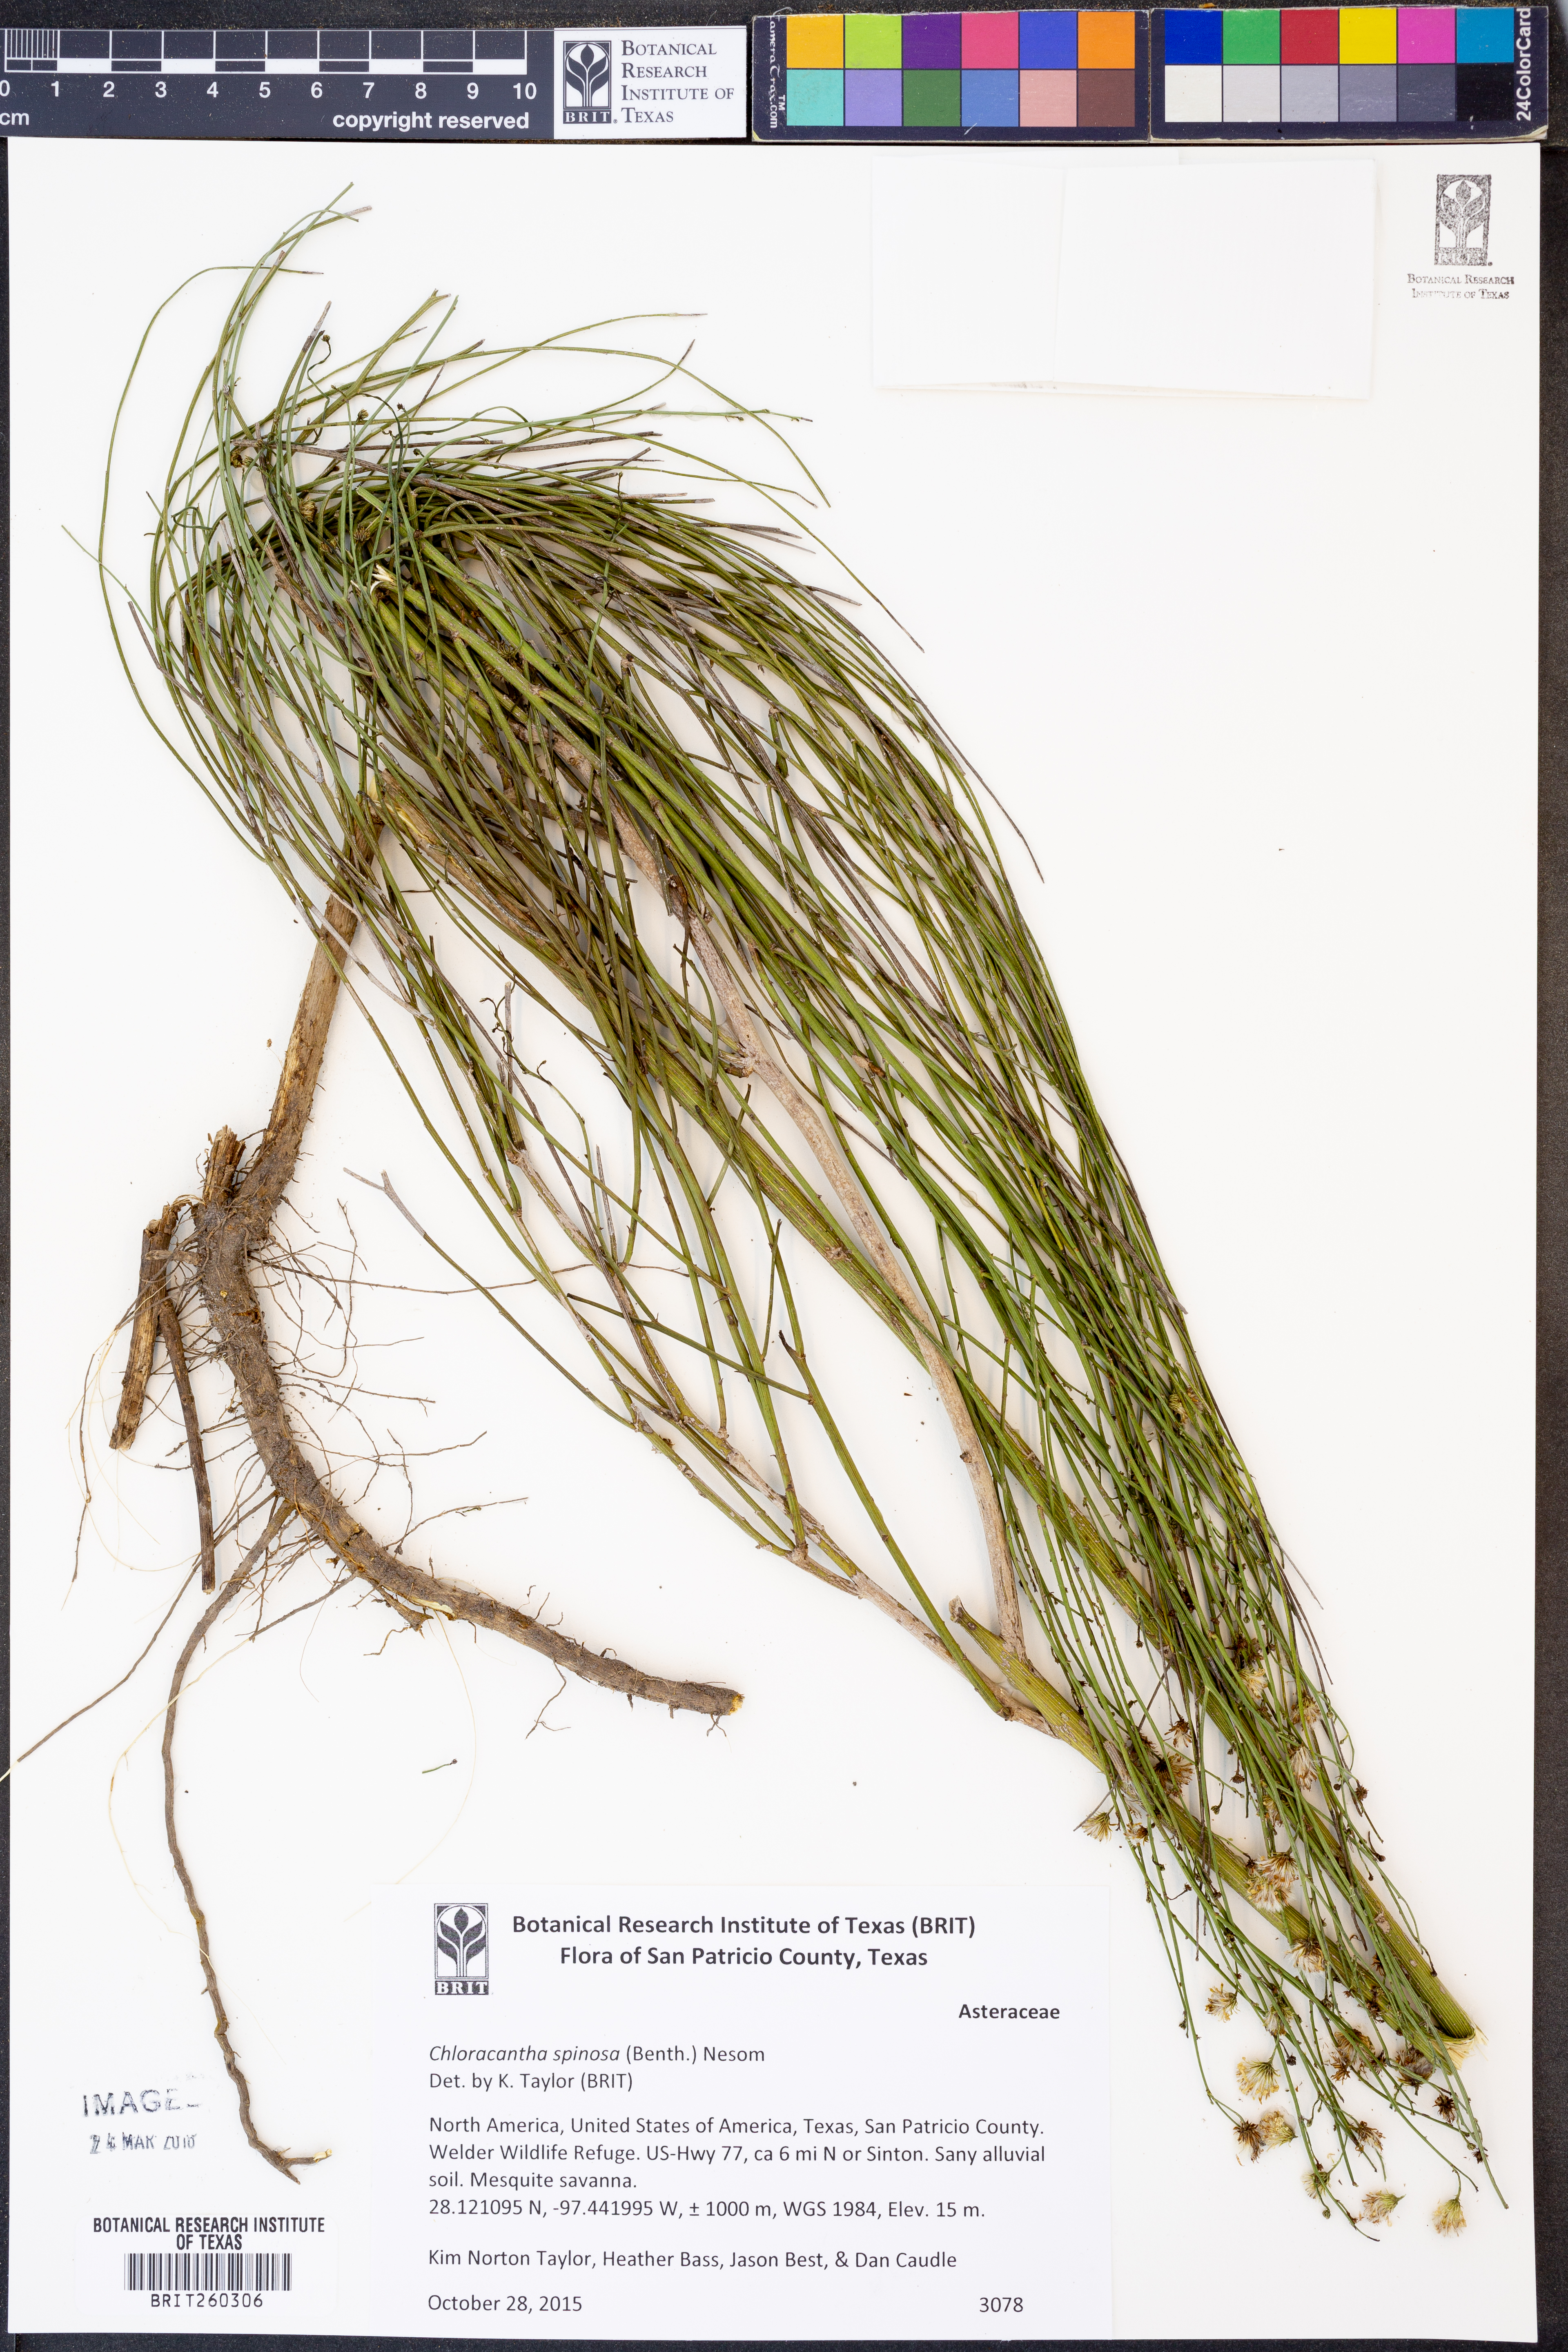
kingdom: Plantae
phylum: Tracheophyta
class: Magnoliopsida
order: Asterales
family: Asteraceae
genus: Chloracantha
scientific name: Chloracantha spinosa
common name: Mexican devilweed
